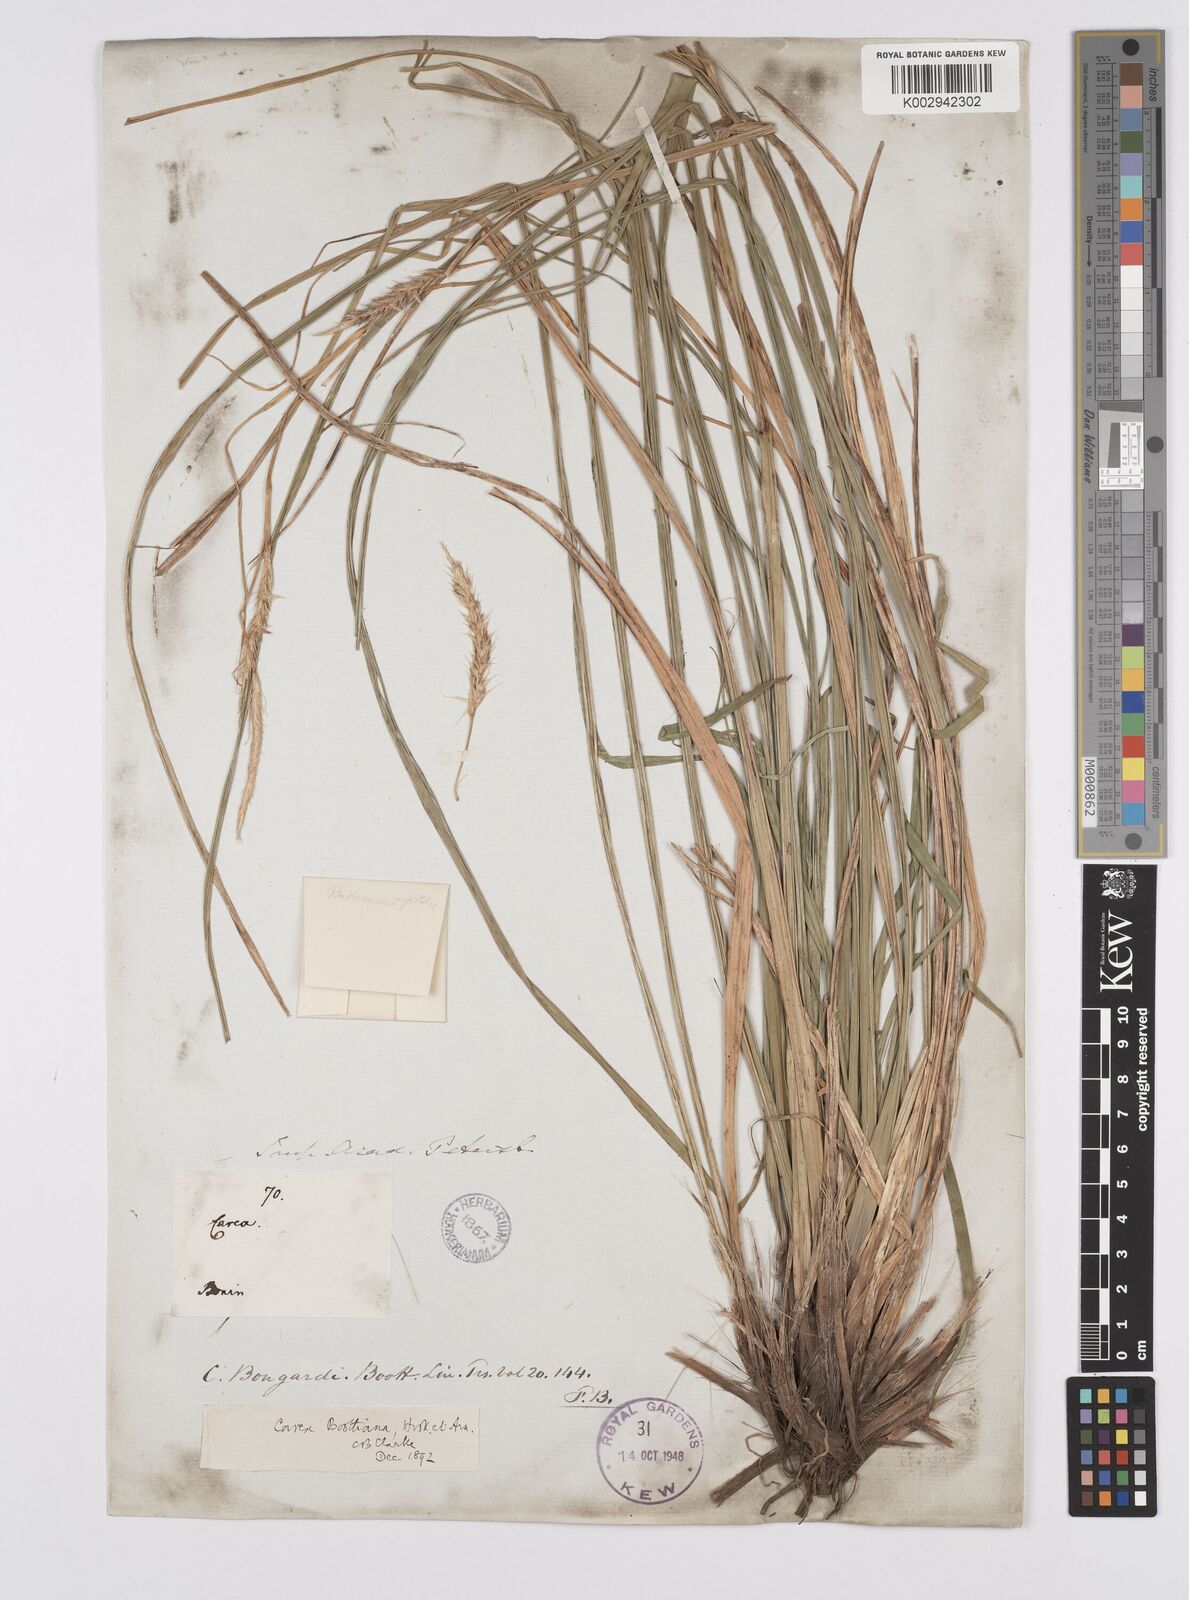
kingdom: Plantae
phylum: Tracheophyta
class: Liliopsida
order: Poales
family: Cyperaceae
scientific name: Cyperaceae
